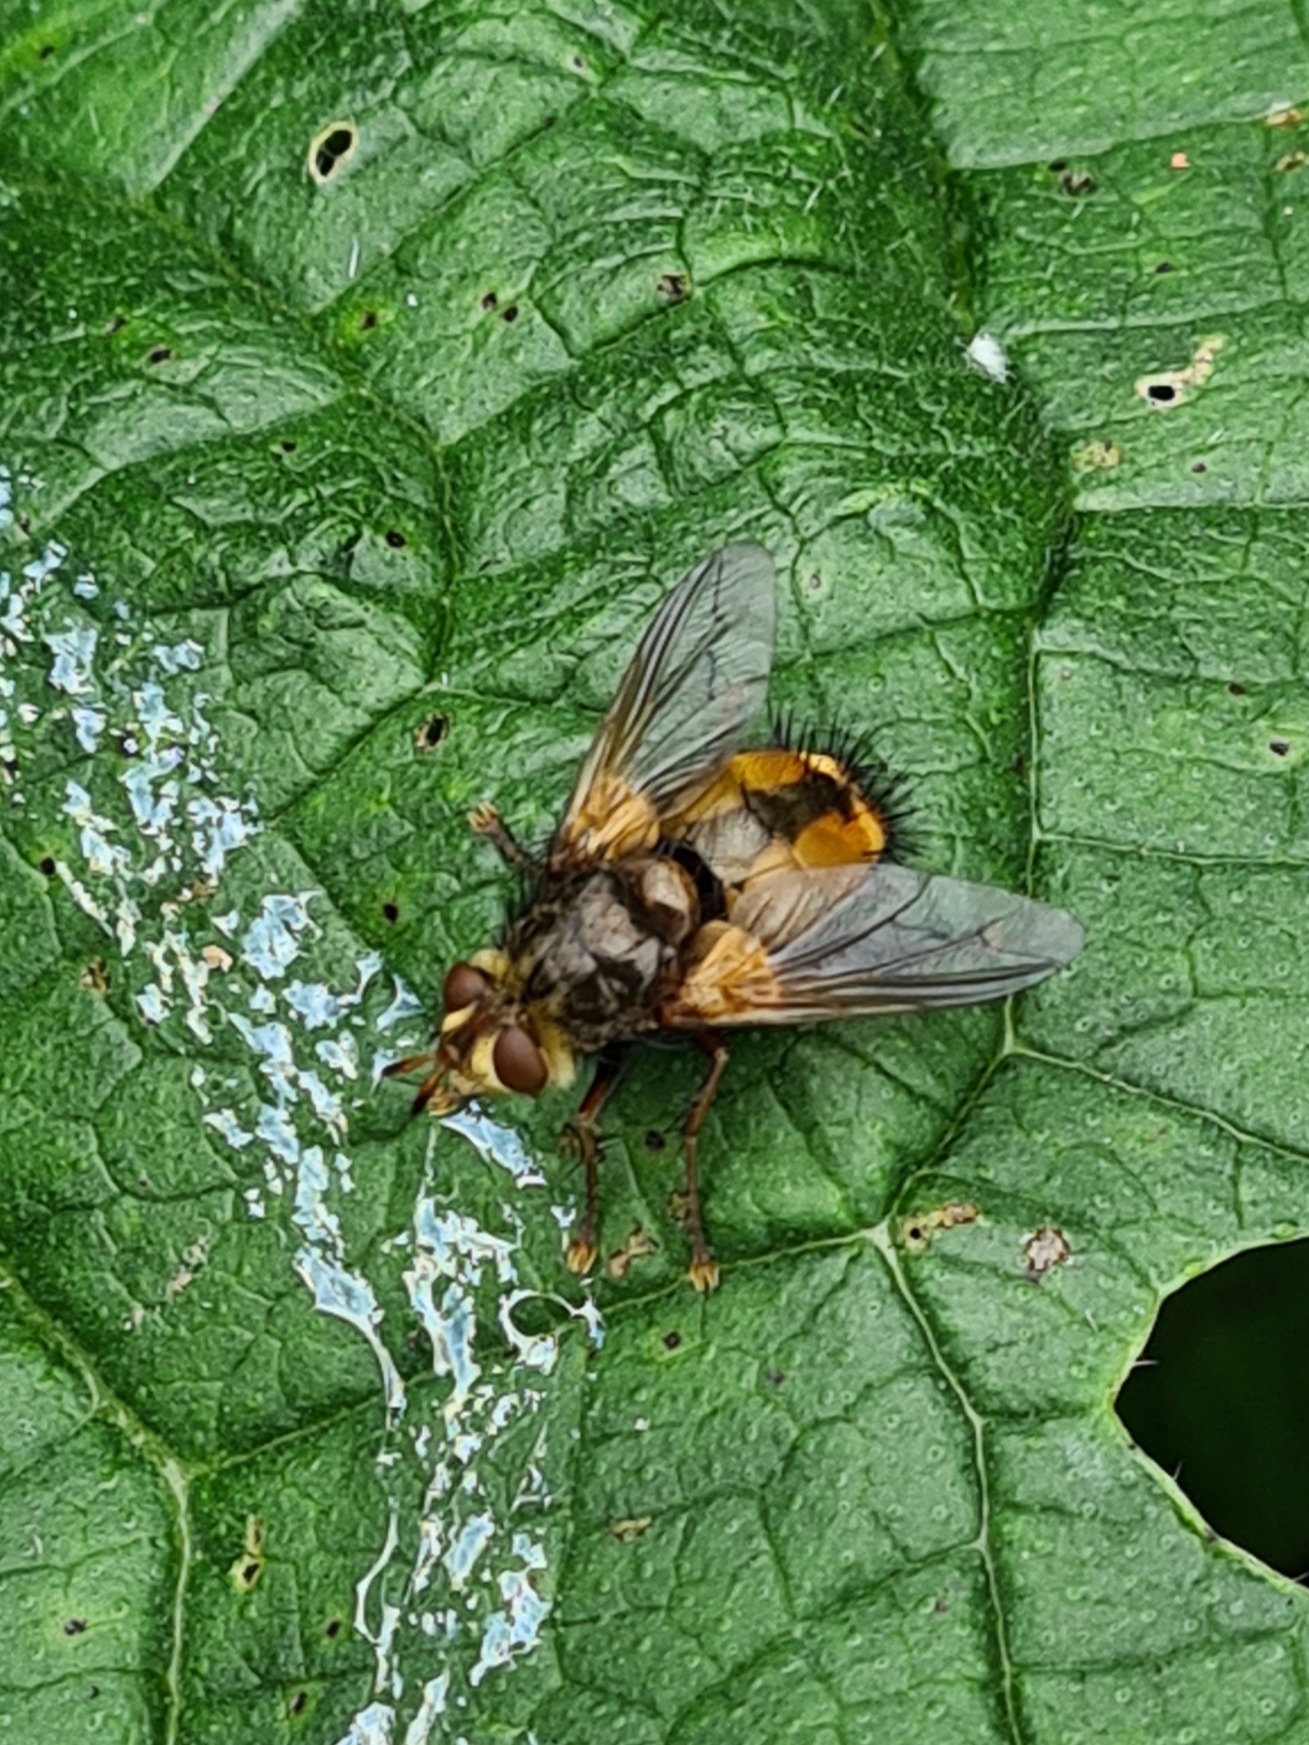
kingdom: Animalia
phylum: Arthropoda
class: Insecta
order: Diptera
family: Tachinidae
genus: Tachina
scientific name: Tachina fera
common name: Mellemfluen oskar
